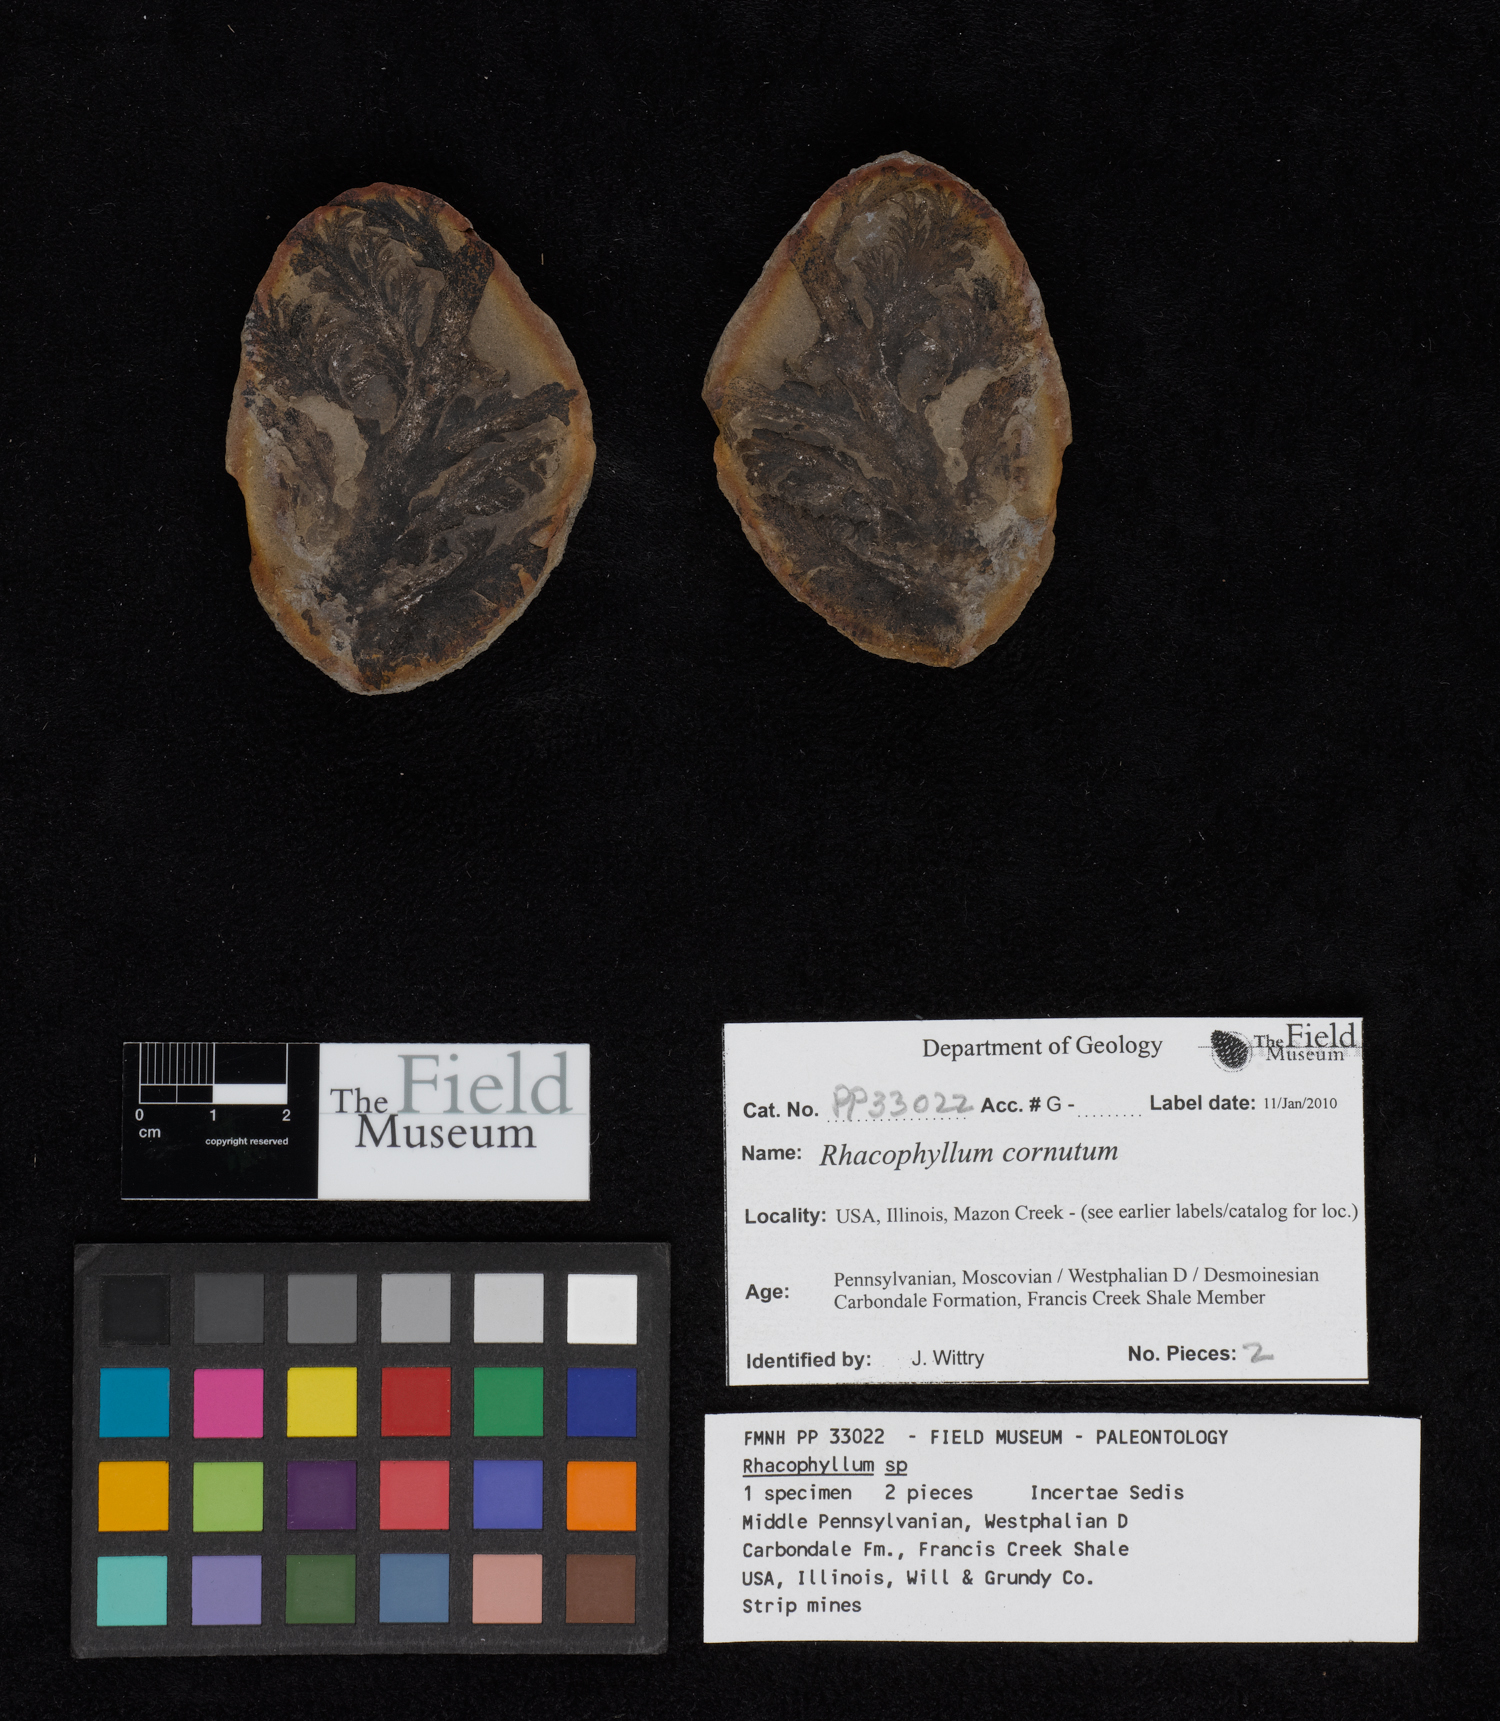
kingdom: Plantae
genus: Rhacophyllum
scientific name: Rhacophyllum
